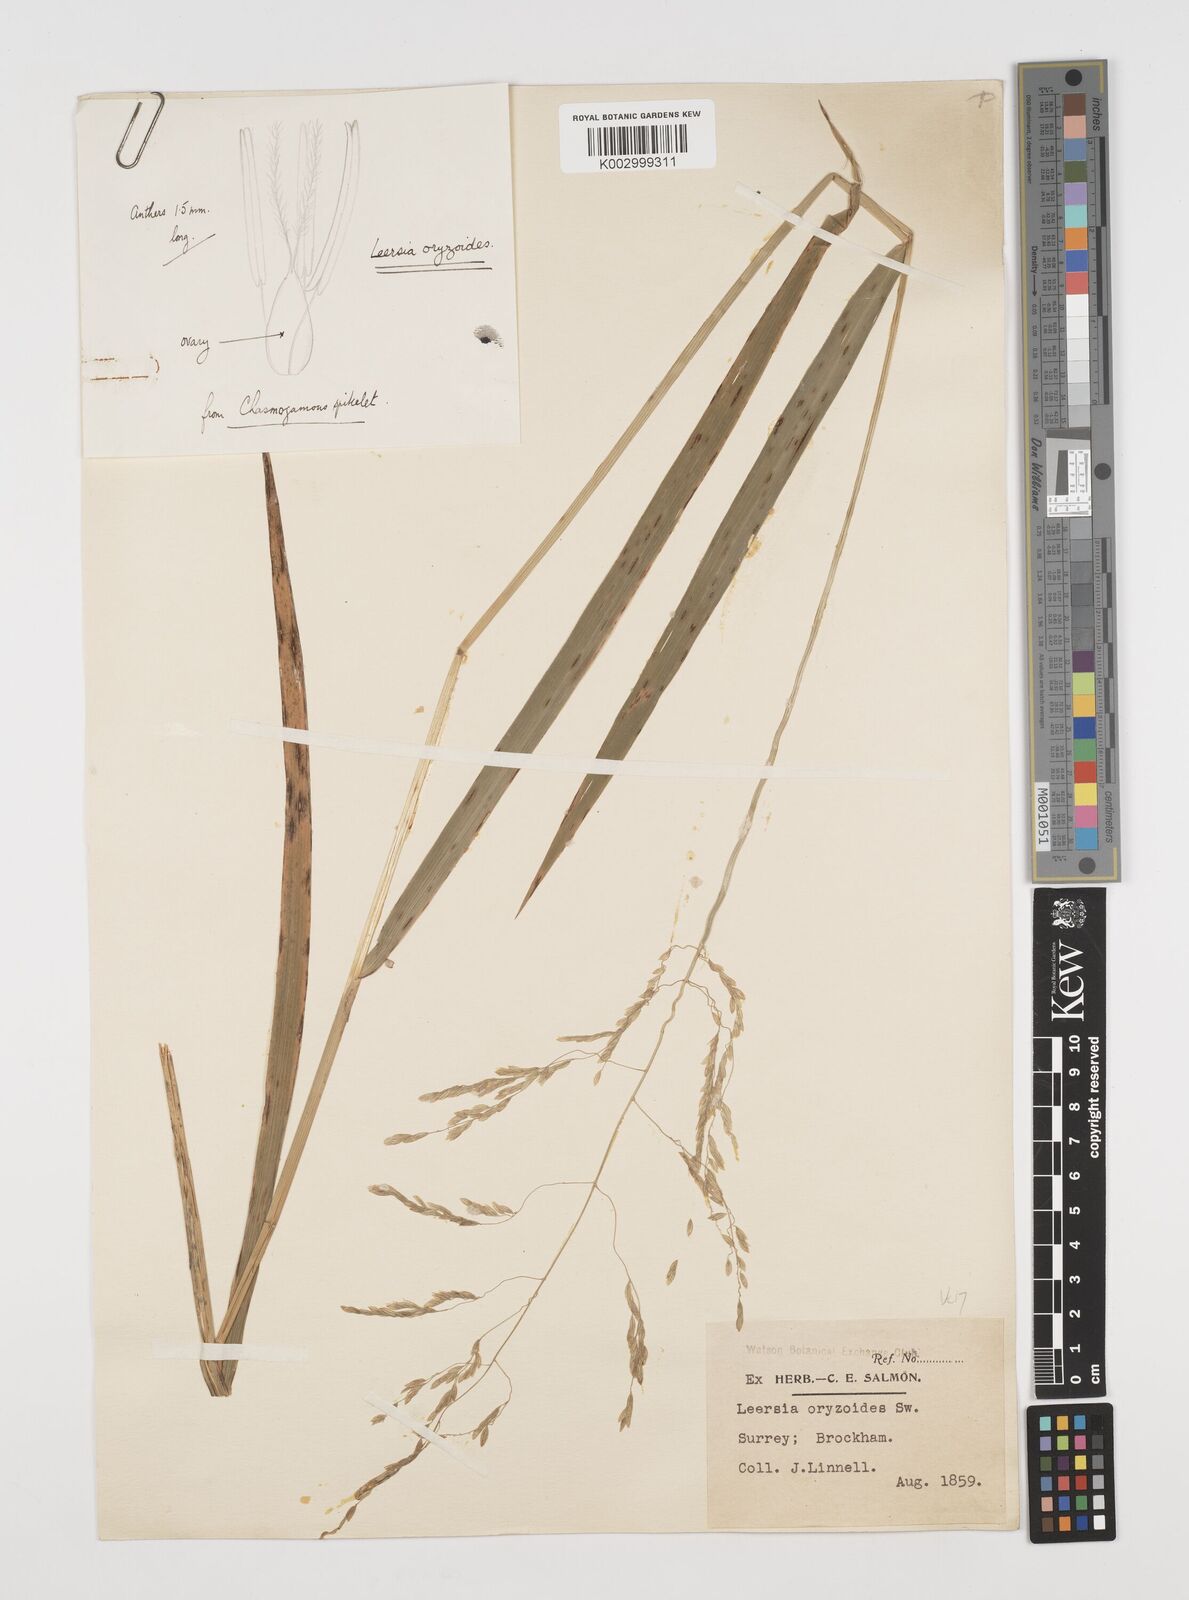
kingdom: Plantae
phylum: Tracheophyta
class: Liliopsida
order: Poales
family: Poaceae
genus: Leersia
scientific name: Leersia oryzoides
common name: Cut-grass
